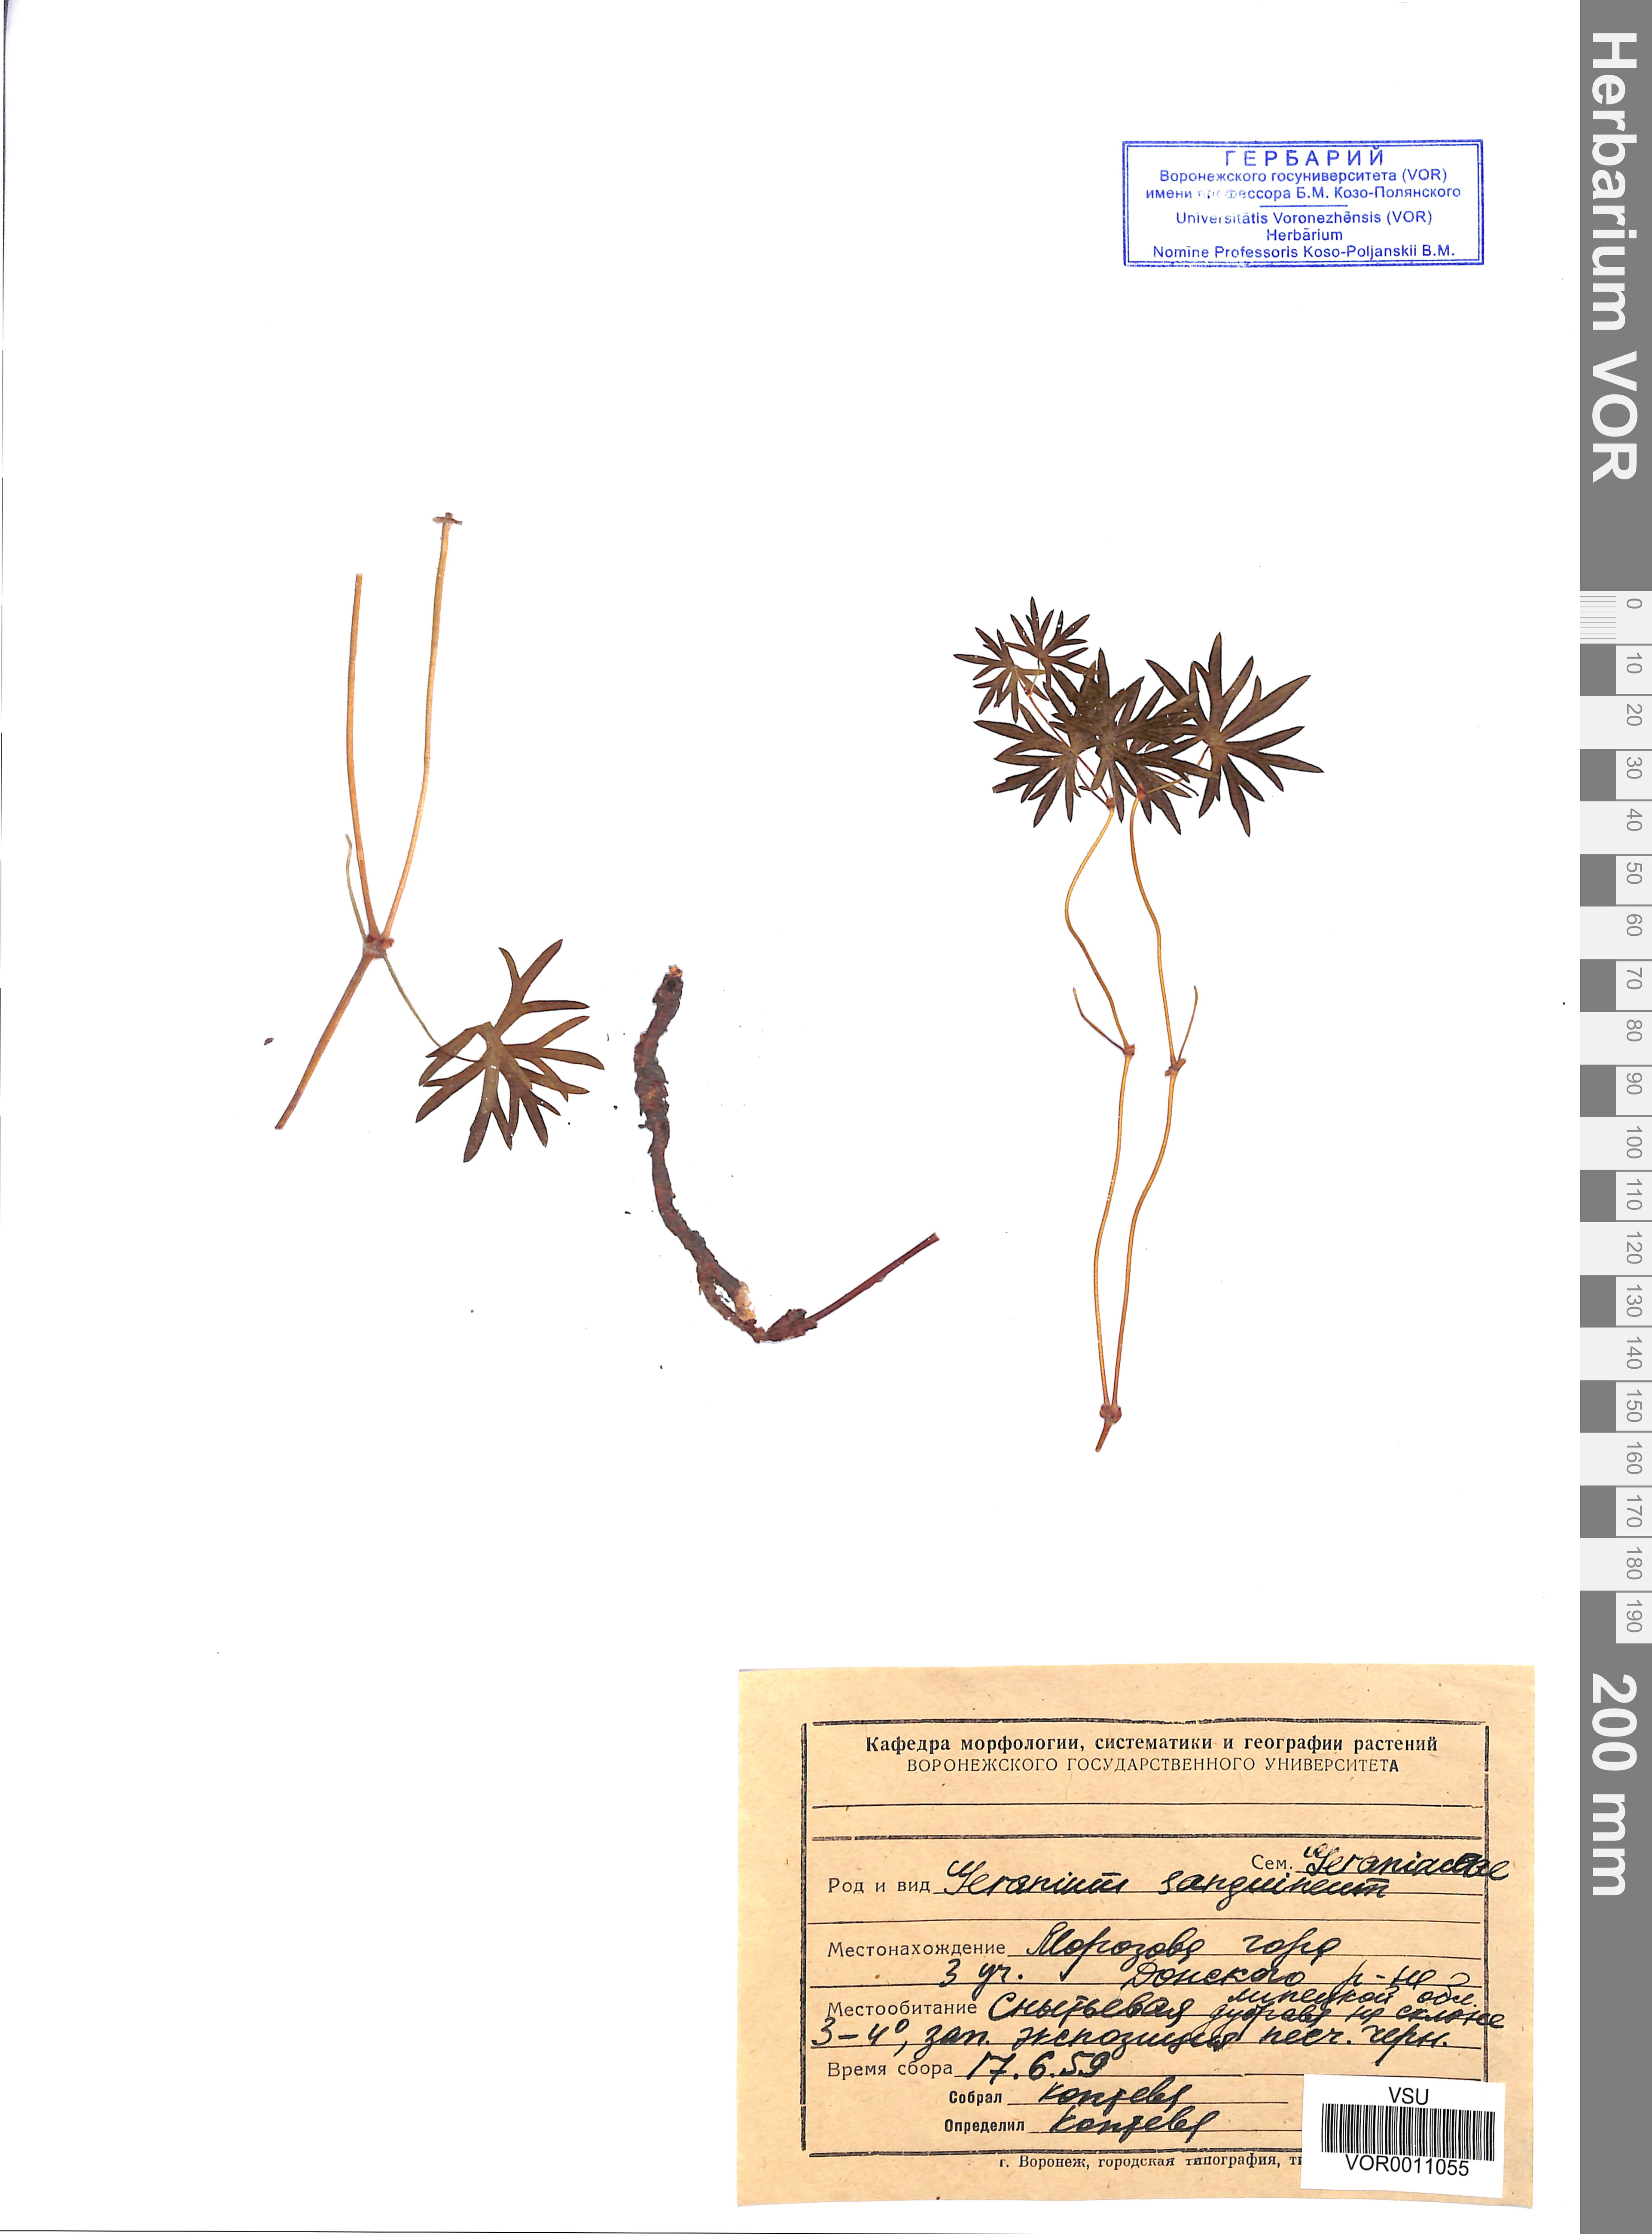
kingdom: Plantae
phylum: Tracheophyta
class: Magnoliopsida
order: Geraniales
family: Geraniaceae
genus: Geranium
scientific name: Geranium sanguineum
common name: Bloody crane's-bill
